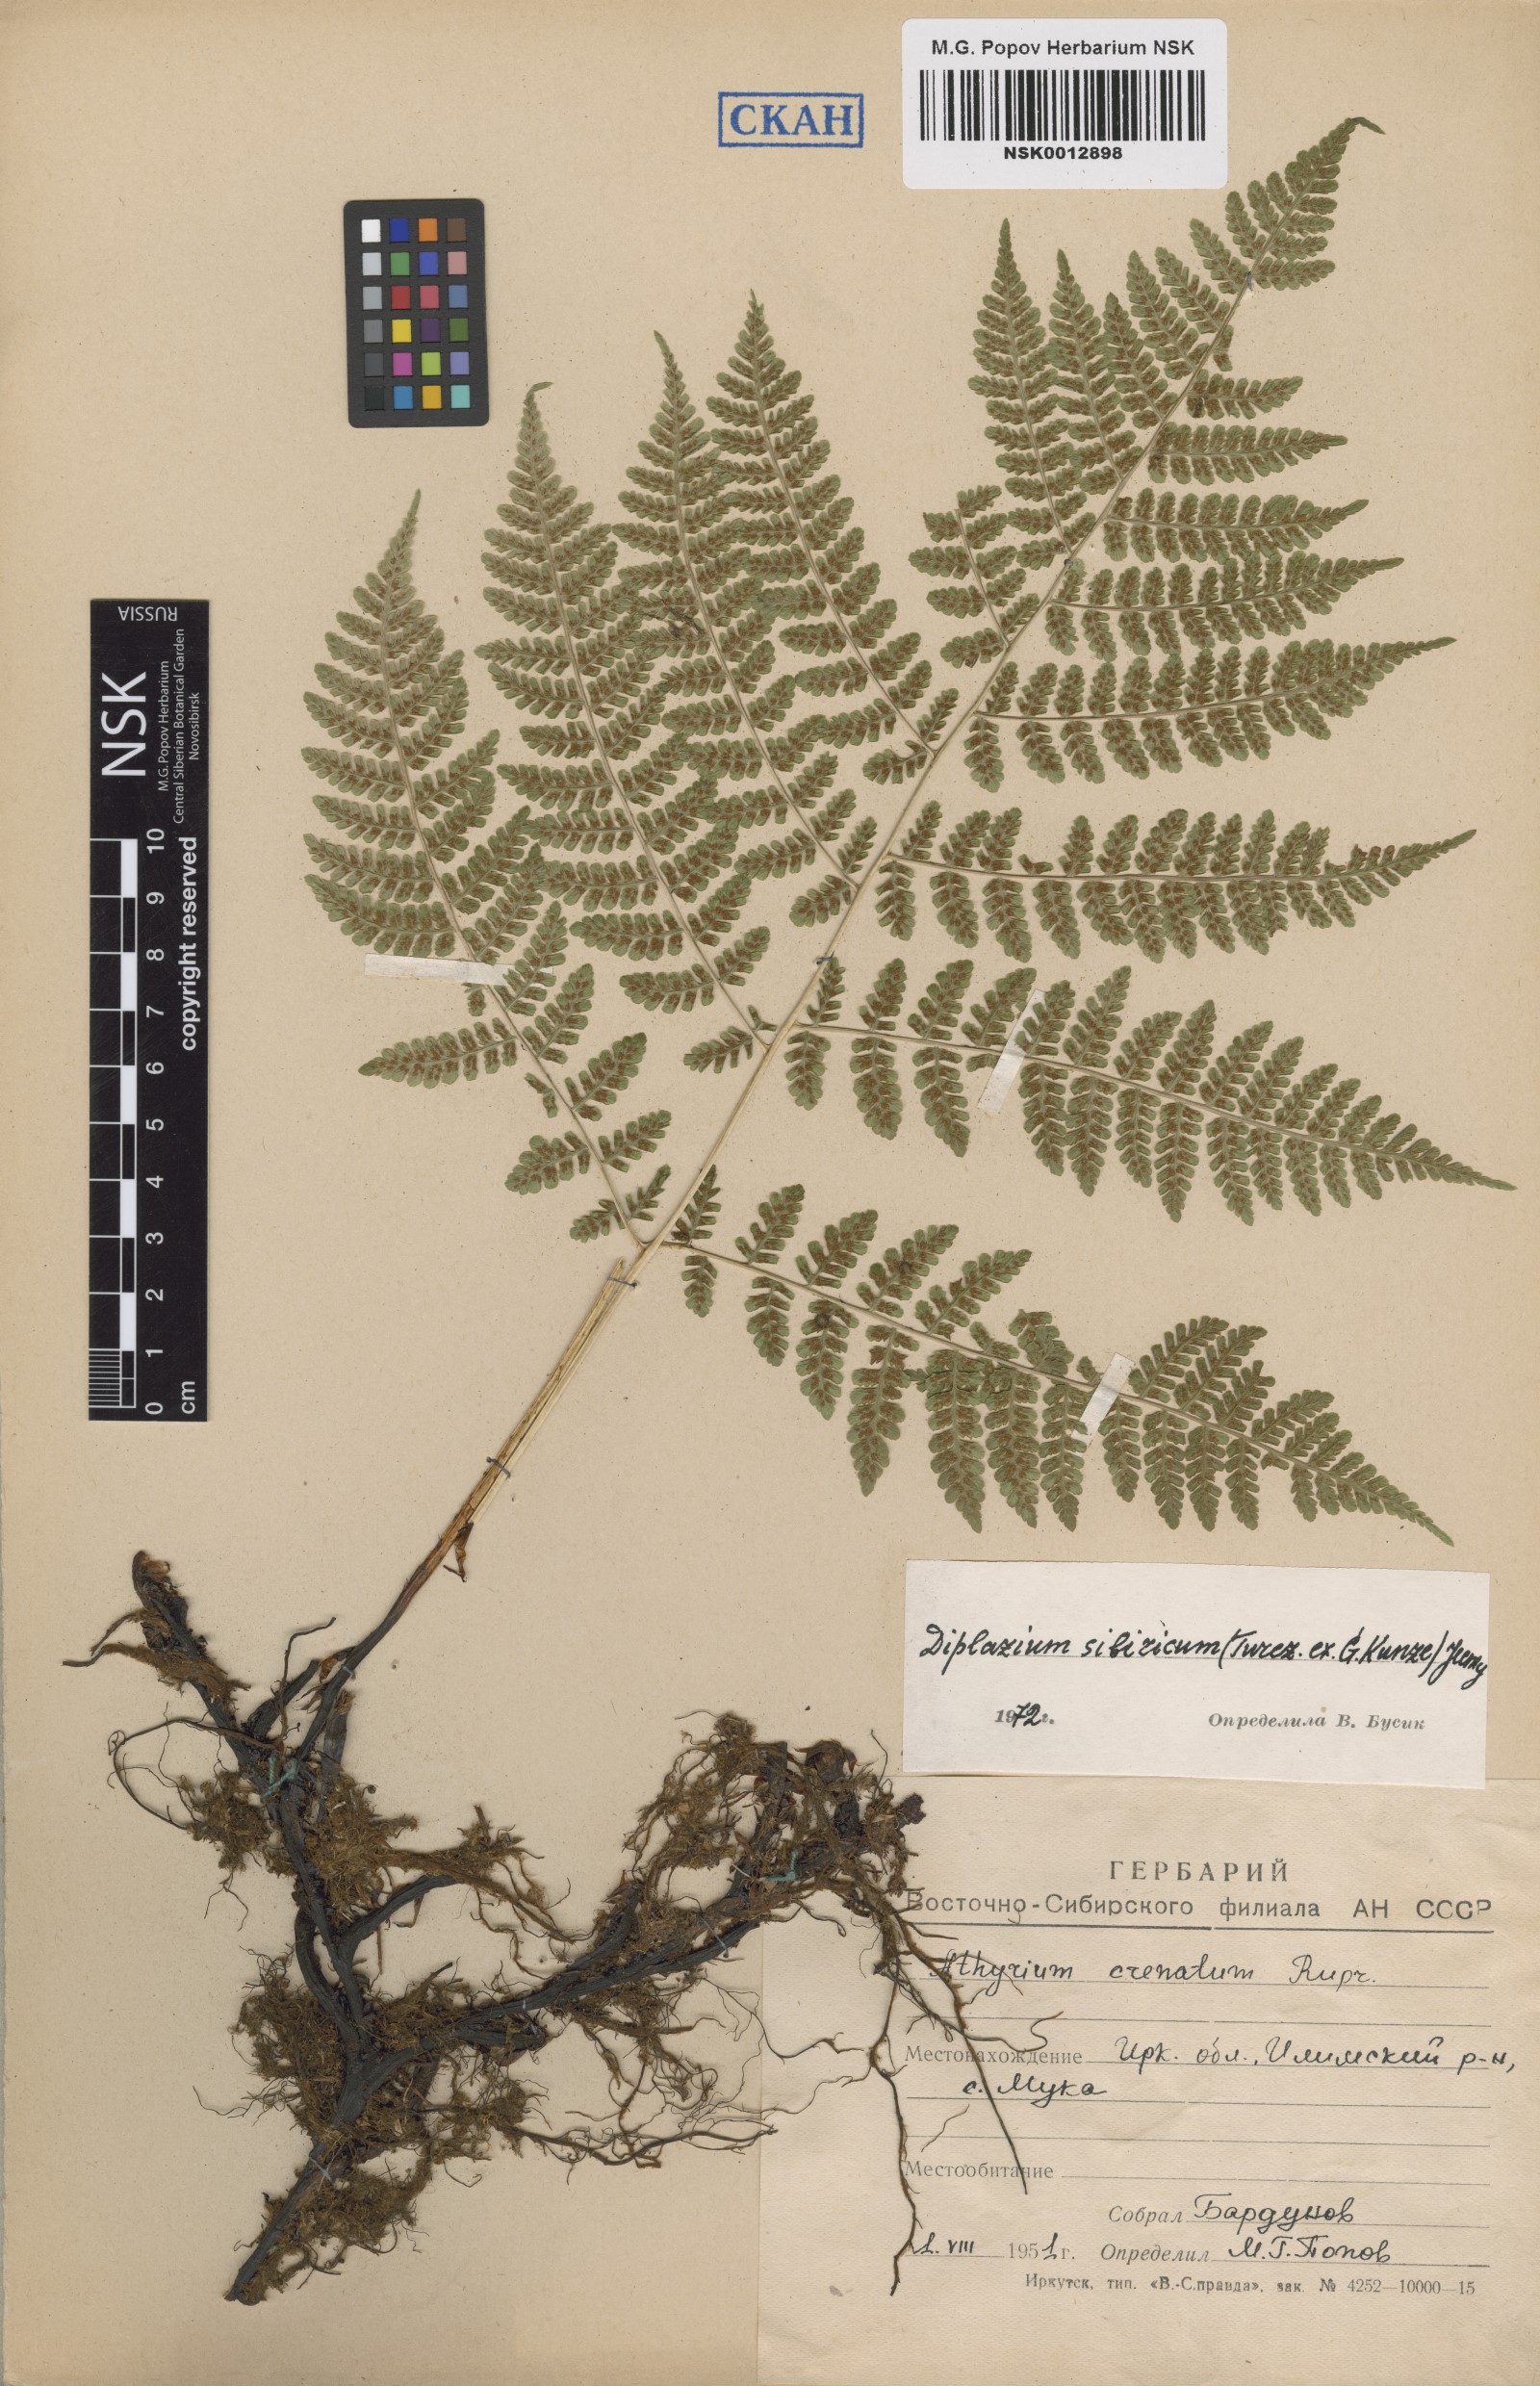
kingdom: Plantae
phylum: Tracheophyta
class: Polypodiopsida
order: Polypodiales
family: Athyriaceae
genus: Diplazium
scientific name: Diplazium sibiricum
